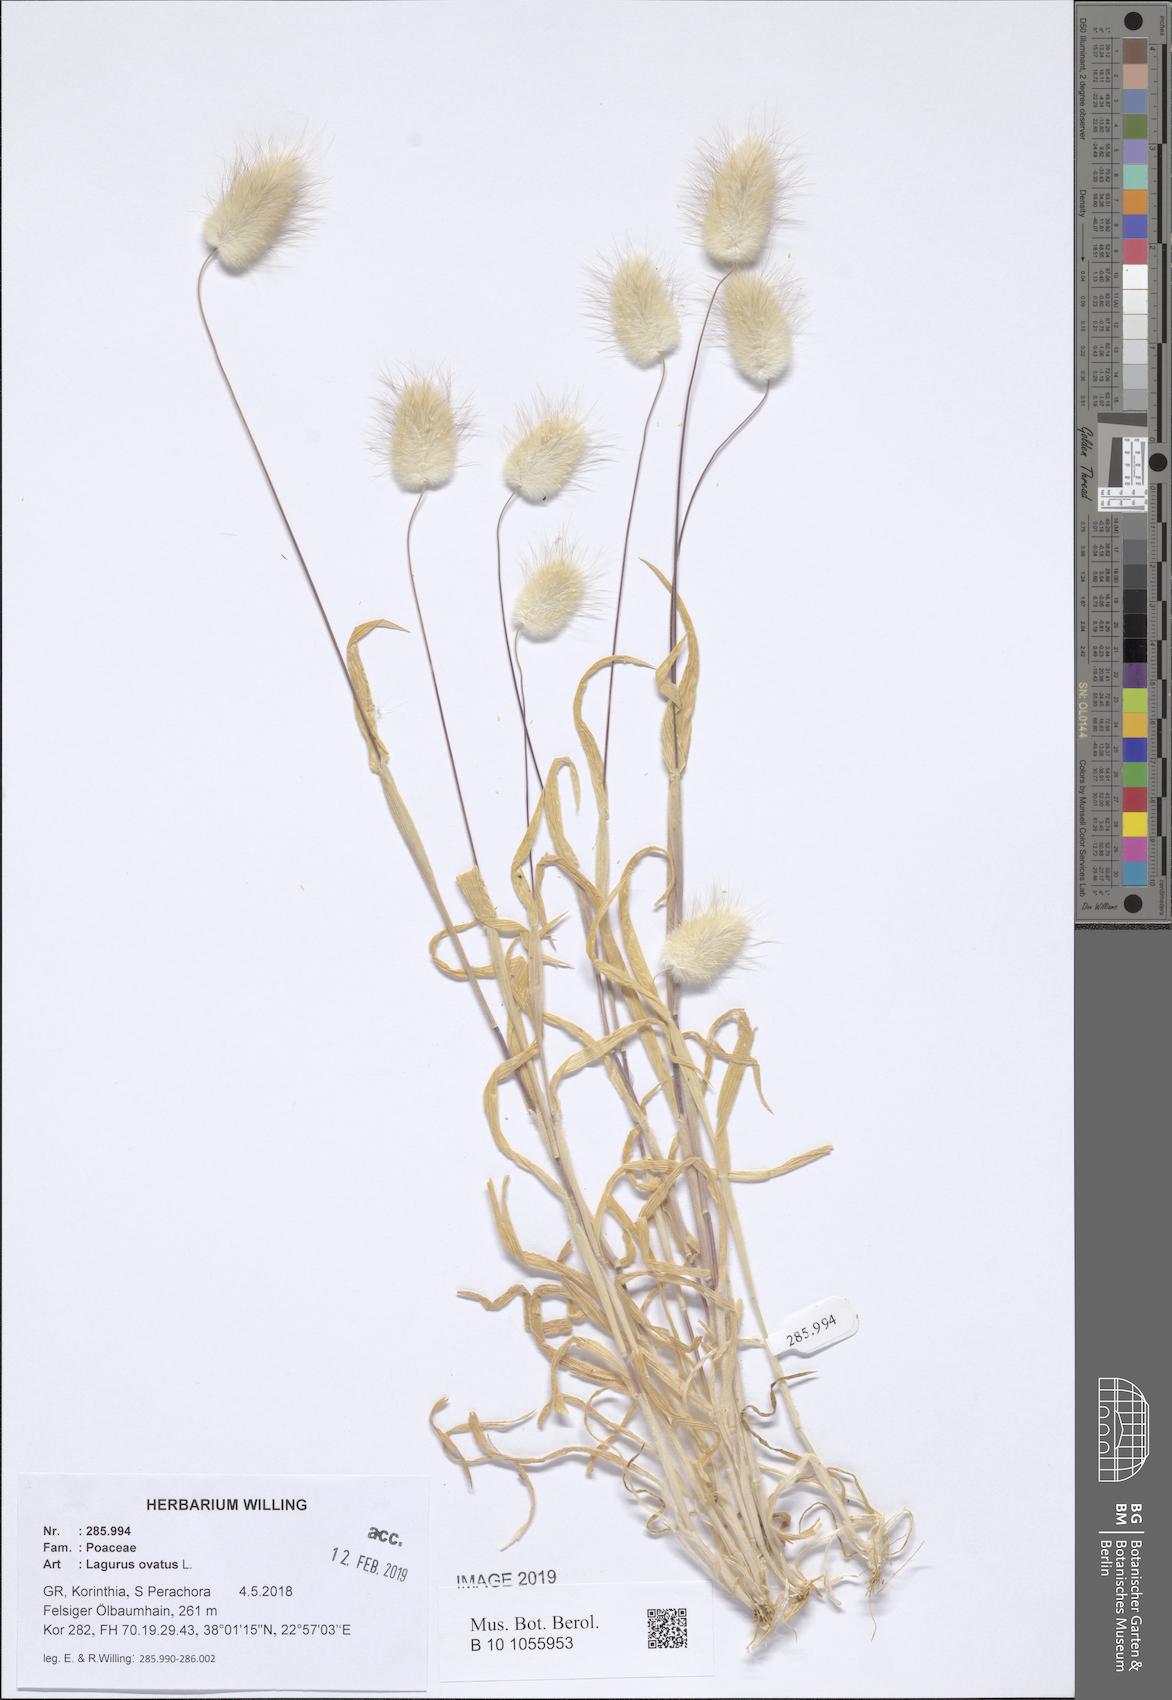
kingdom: Plantae
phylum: Tracheophyta
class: Liliopsida
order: Poales
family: Poaceae
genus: Lagurus
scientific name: Lagurus ovatus
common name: Hare's-tail
